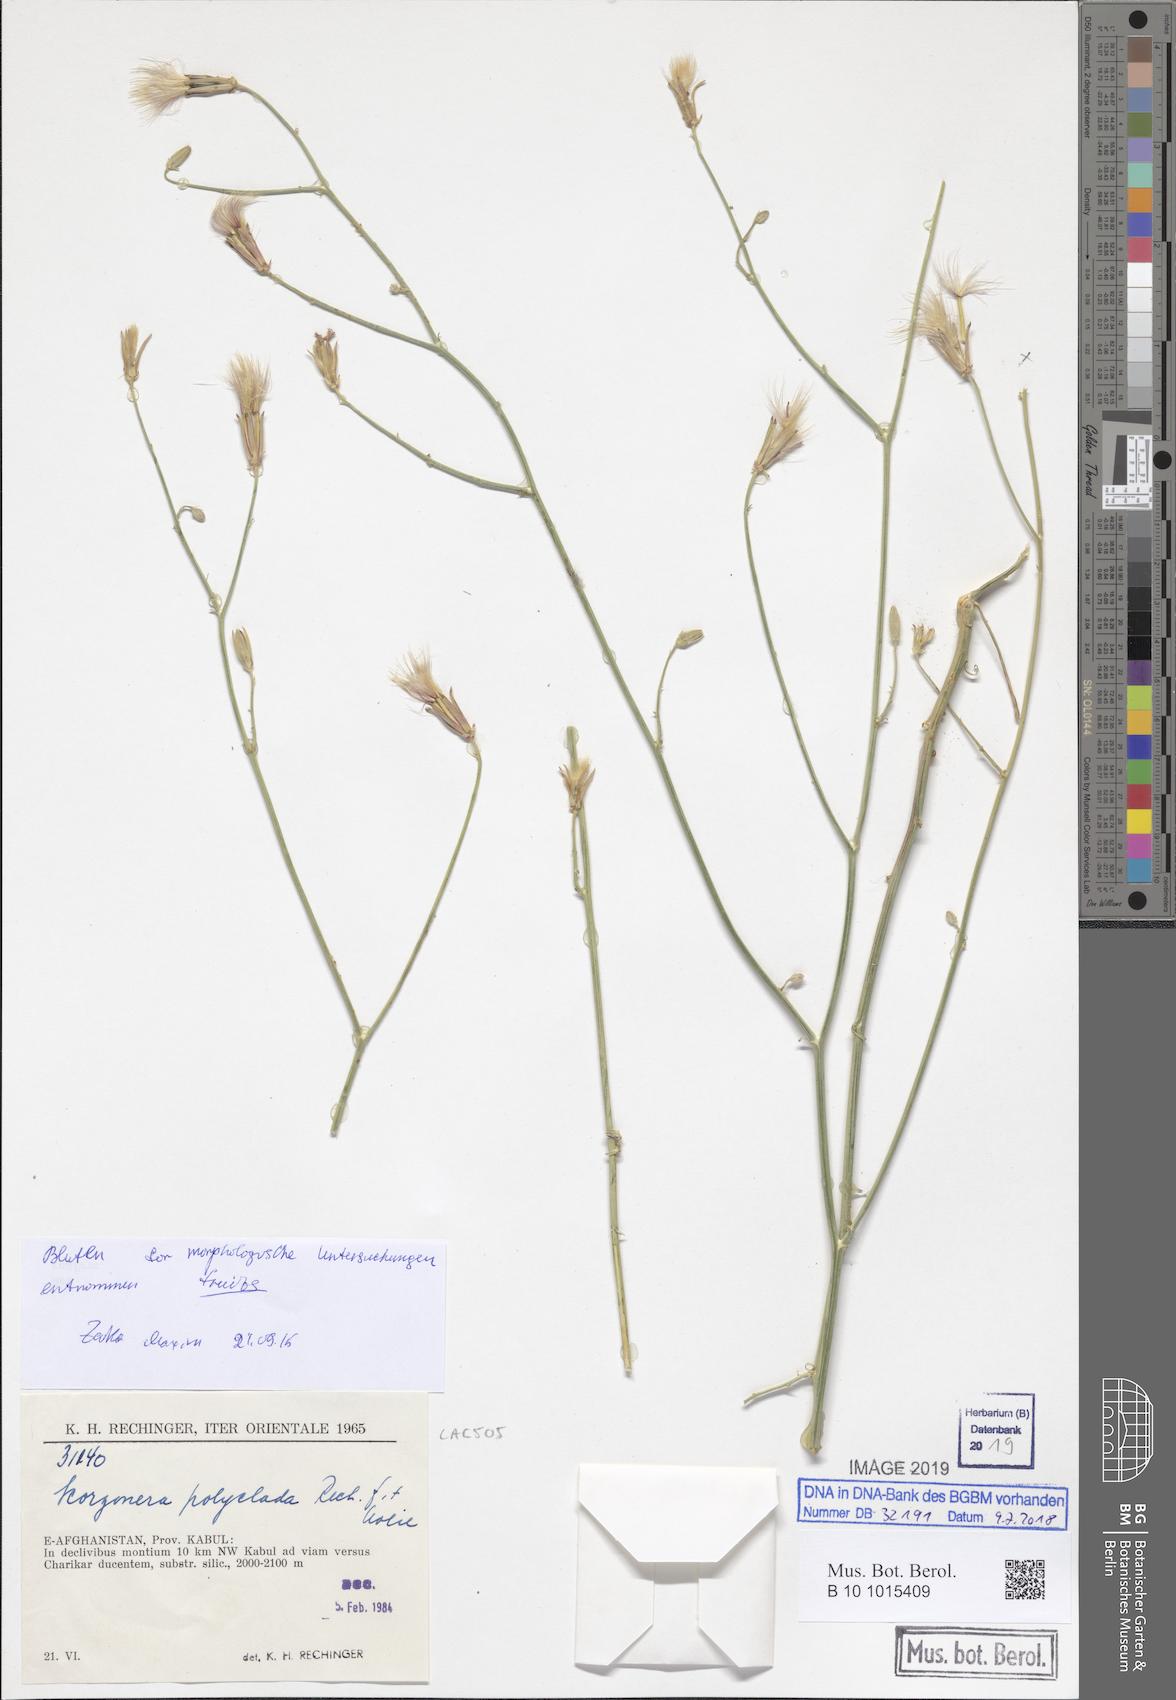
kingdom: Plantae
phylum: Tracheophyta
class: Magnoliopsida
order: Asterales
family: Asteraceae
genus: Ramaliella
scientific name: Ramaliella polyclada
